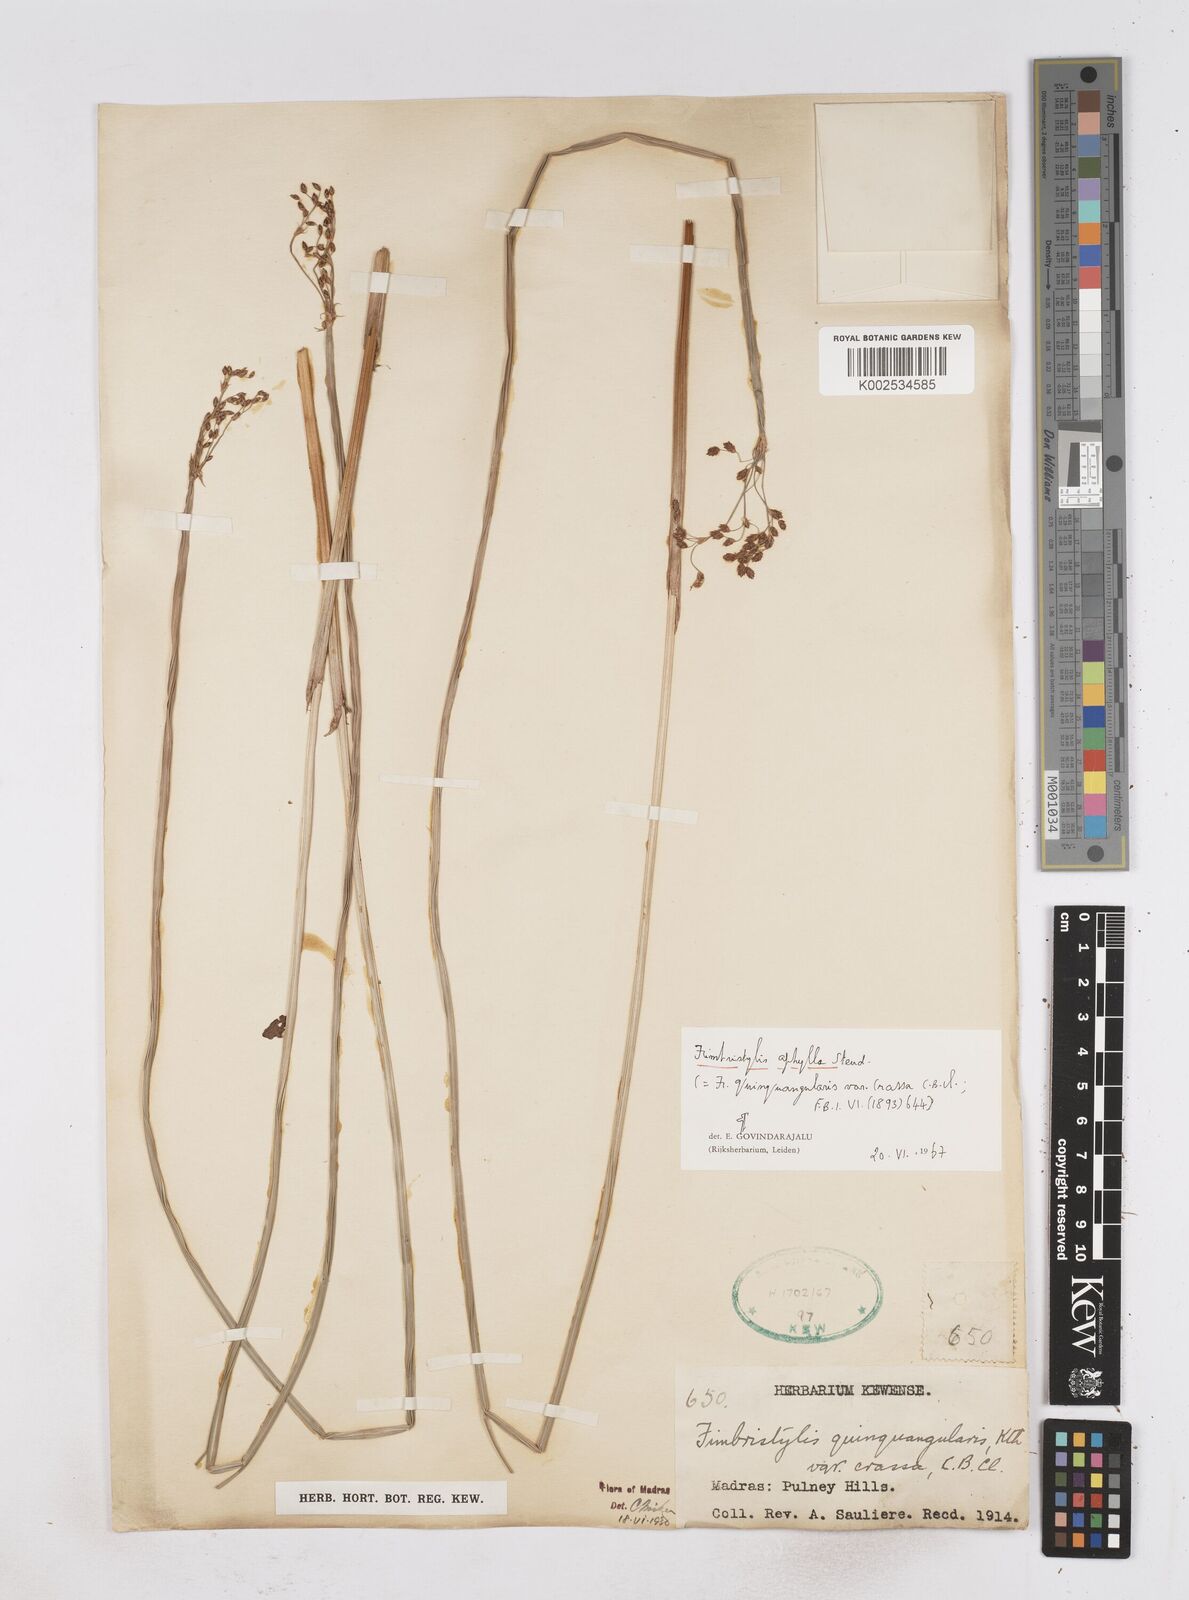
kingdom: Plantae
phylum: Tracheophyta
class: Liliopsida
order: Poales
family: Cyperaceae
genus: Fimbristylis
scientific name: Fimbristylis aphylla
